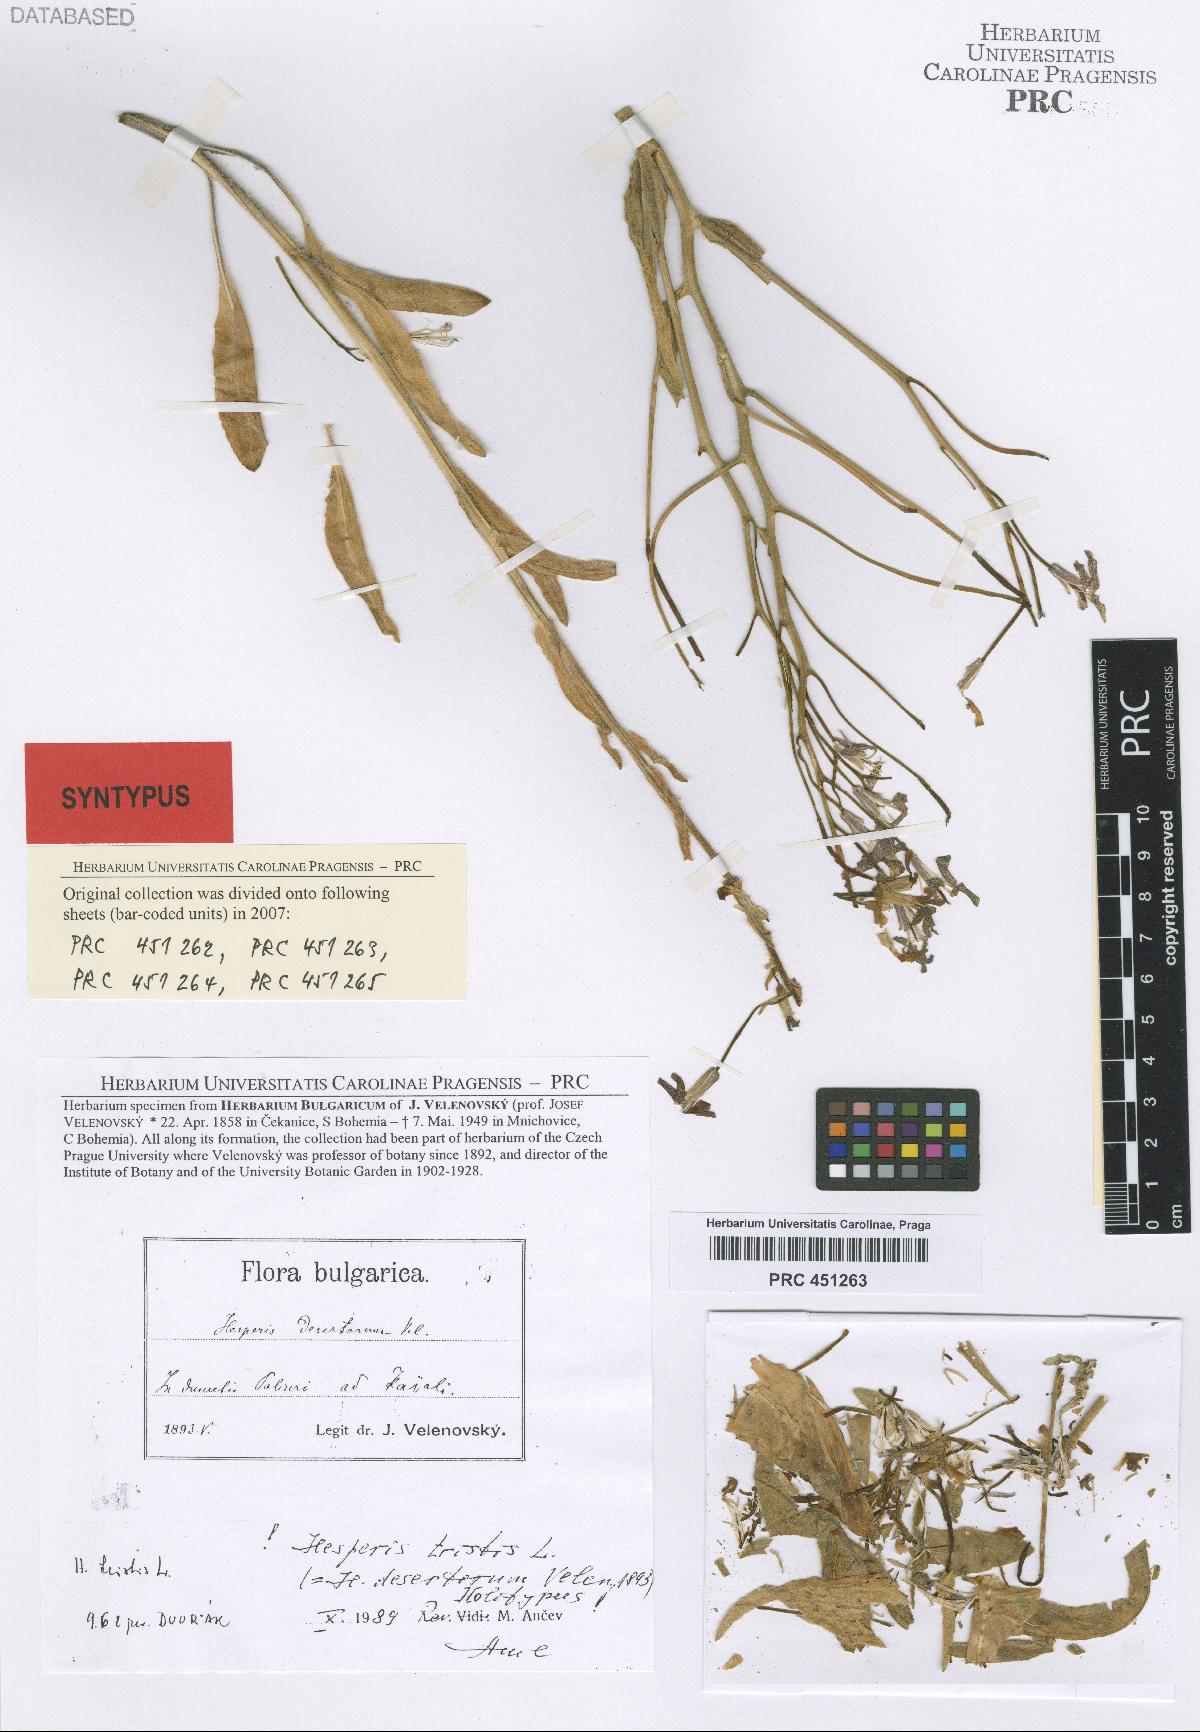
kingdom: Plantae
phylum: Tracheophyta
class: Magnoliopsida
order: Brassicales
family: Brassicaceae
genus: Hesperis
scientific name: Hesperis tristis
